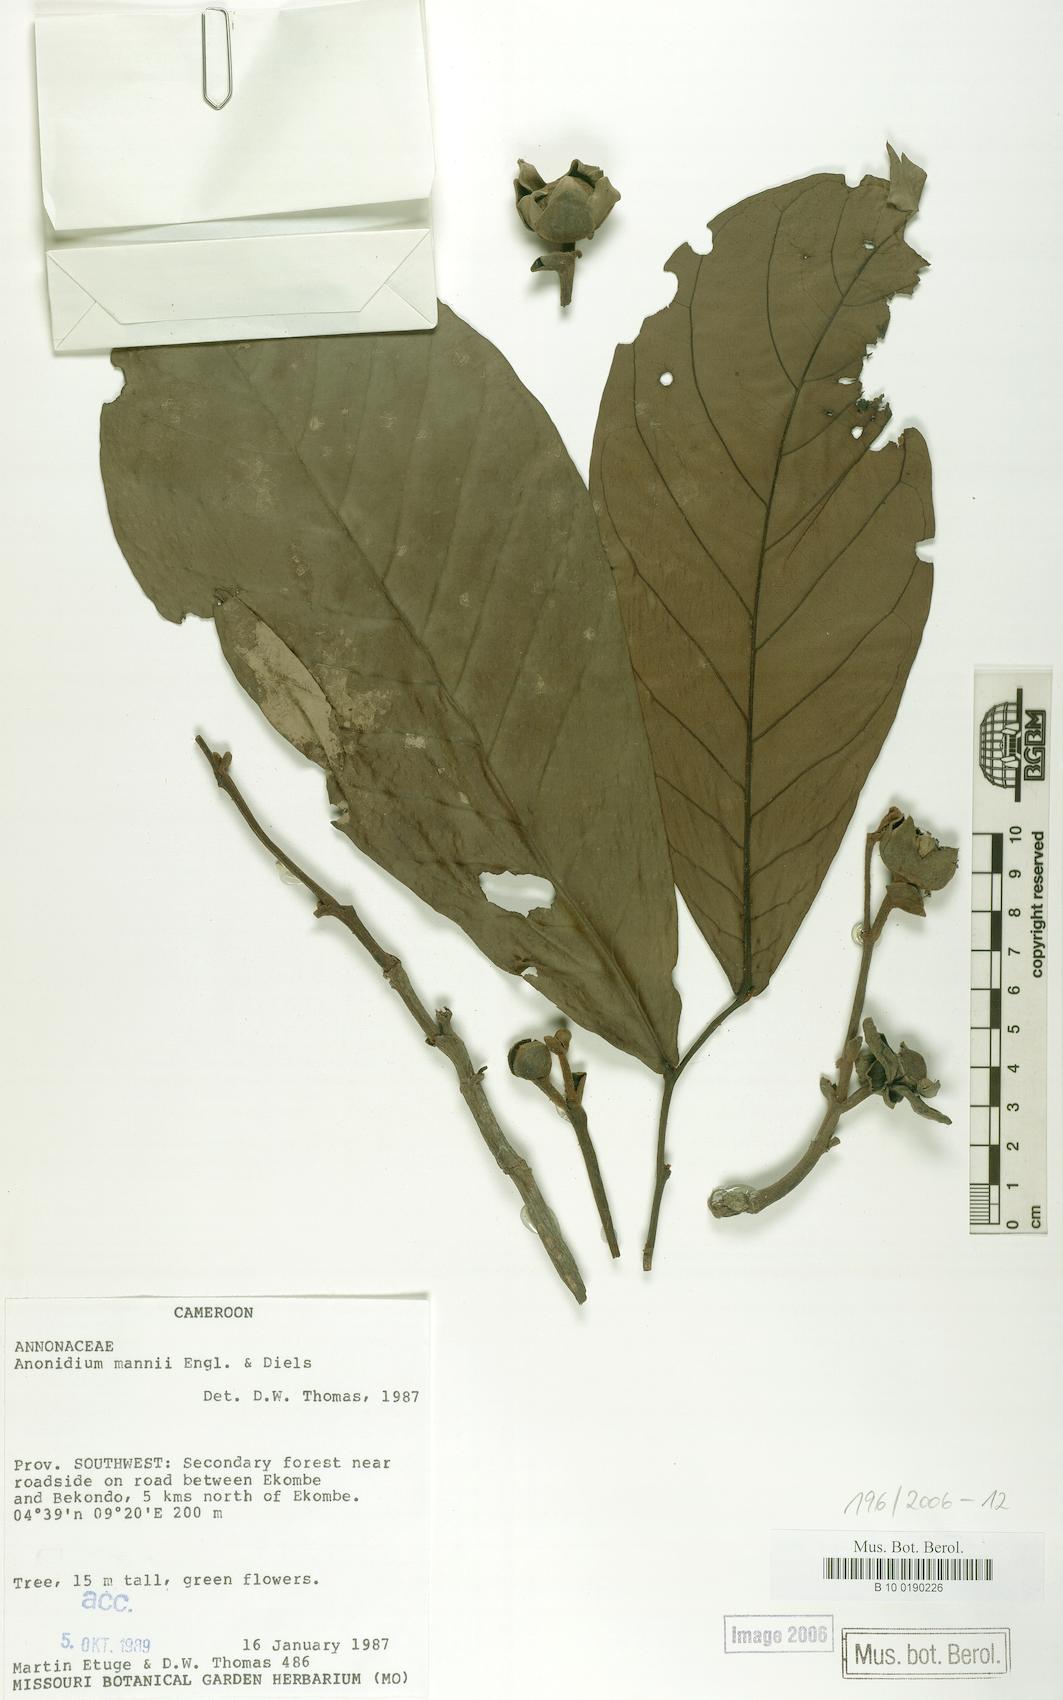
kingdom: Plantae
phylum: Tracheophyta
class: Magnoliopsida
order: Magnoliales
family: Annonaceae
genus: Anonidium
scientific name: Anonidium mannii
